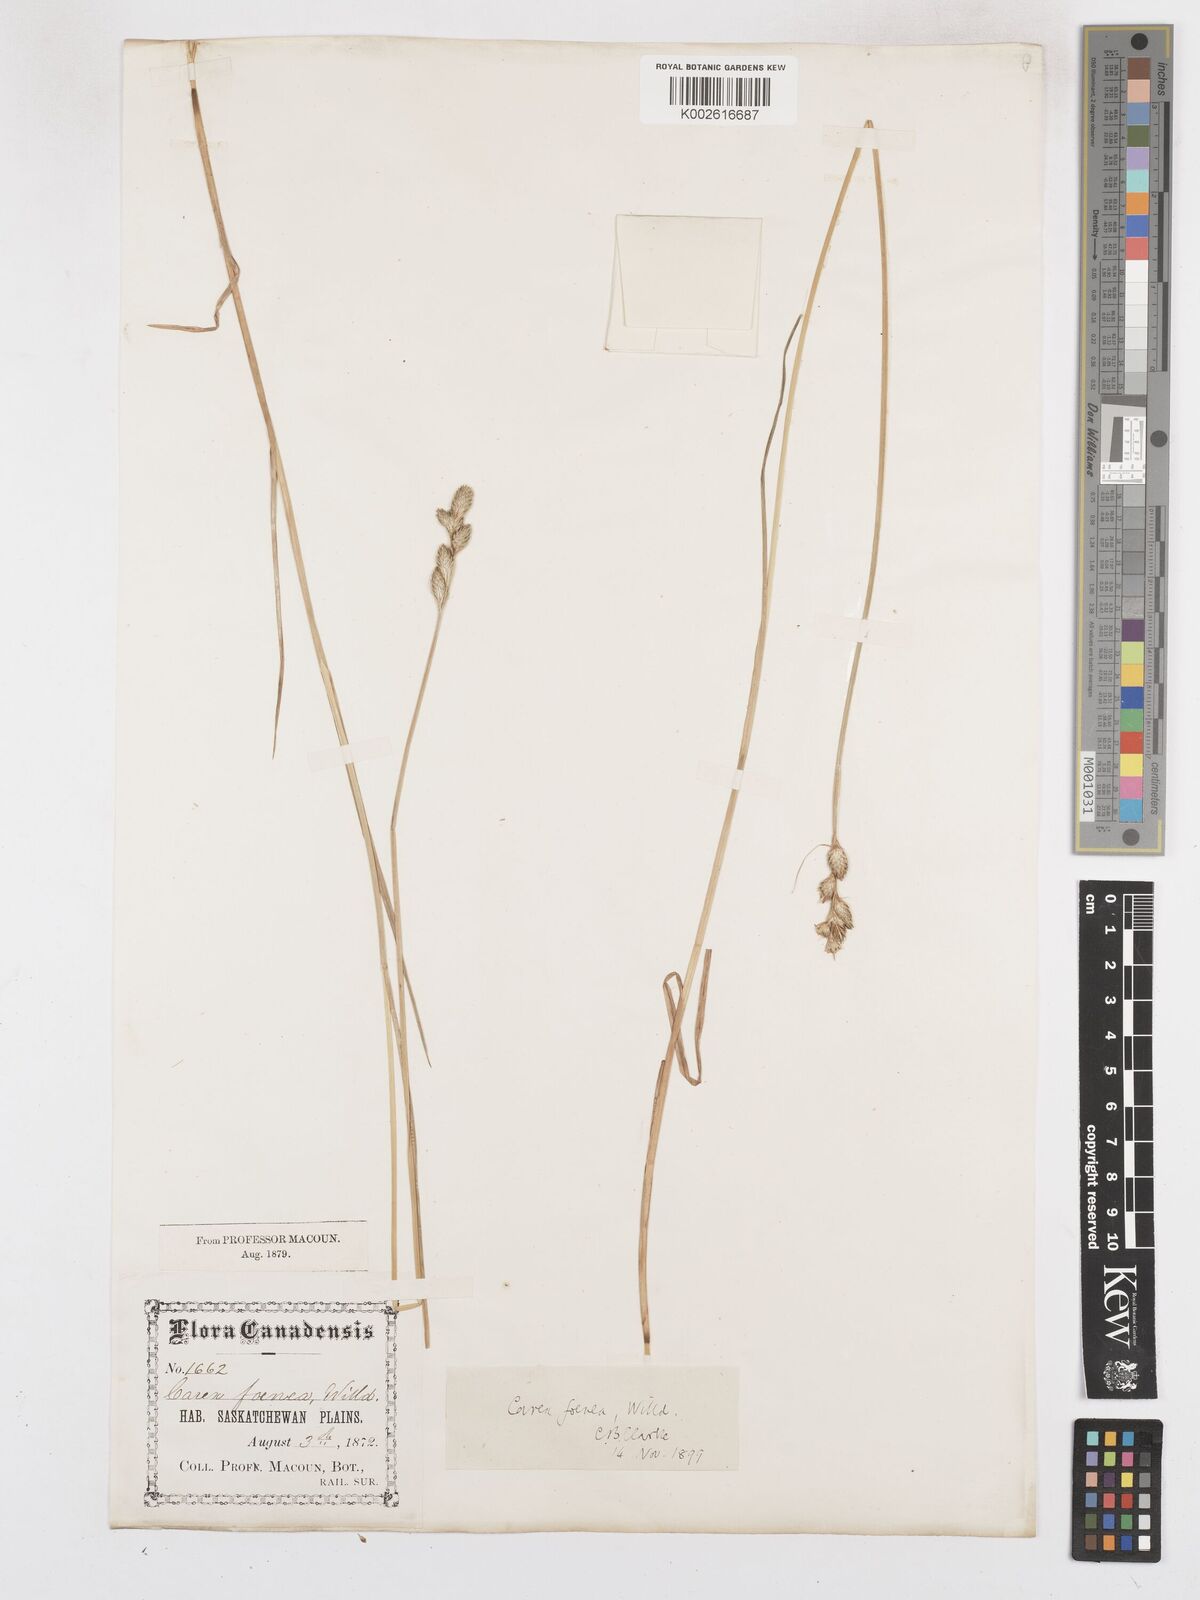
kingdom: Plantae
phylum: Tracheophyta
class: Liliopsida
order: Poales
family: Cyperaceae
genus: Carex
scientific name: Carex argyrantha
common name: Silvery-flowered sedge
